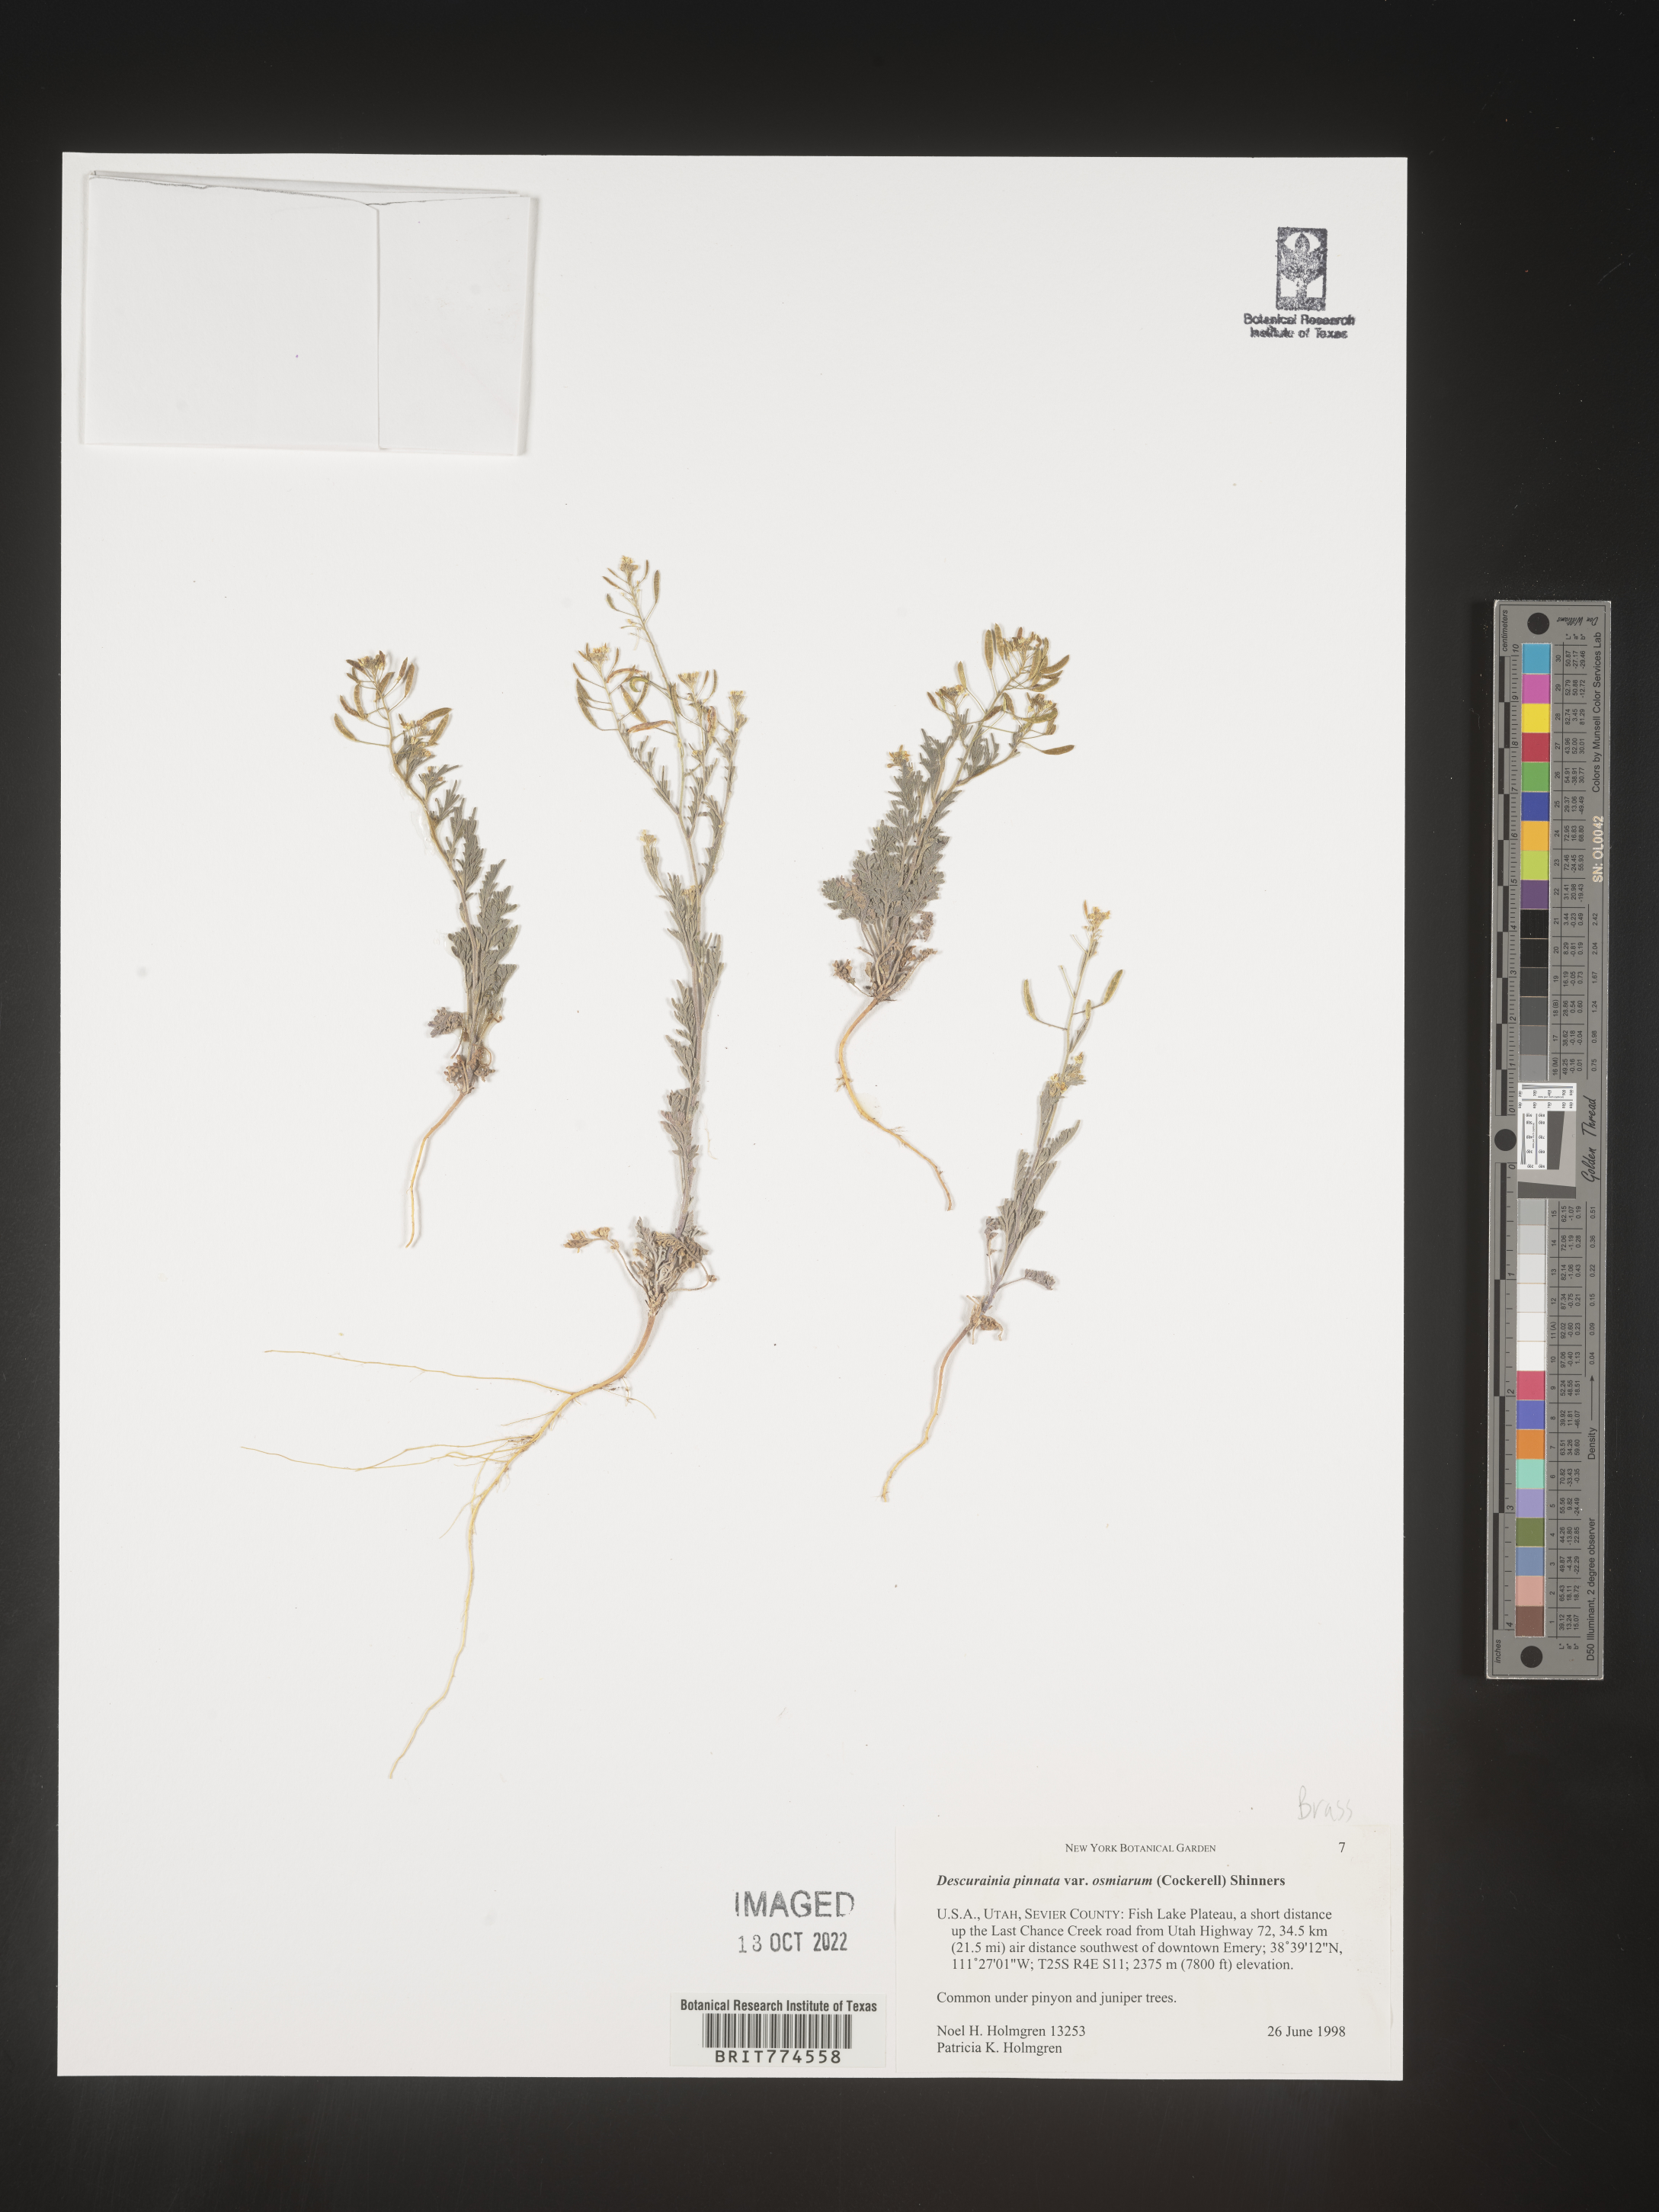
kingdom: Plantae
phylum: Tracheophyta
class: Magnoliopsida
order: Brassicales
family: Brassicaceae
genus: Descurainia
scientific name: Descurainia pinnata
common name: Western tansy mustard
